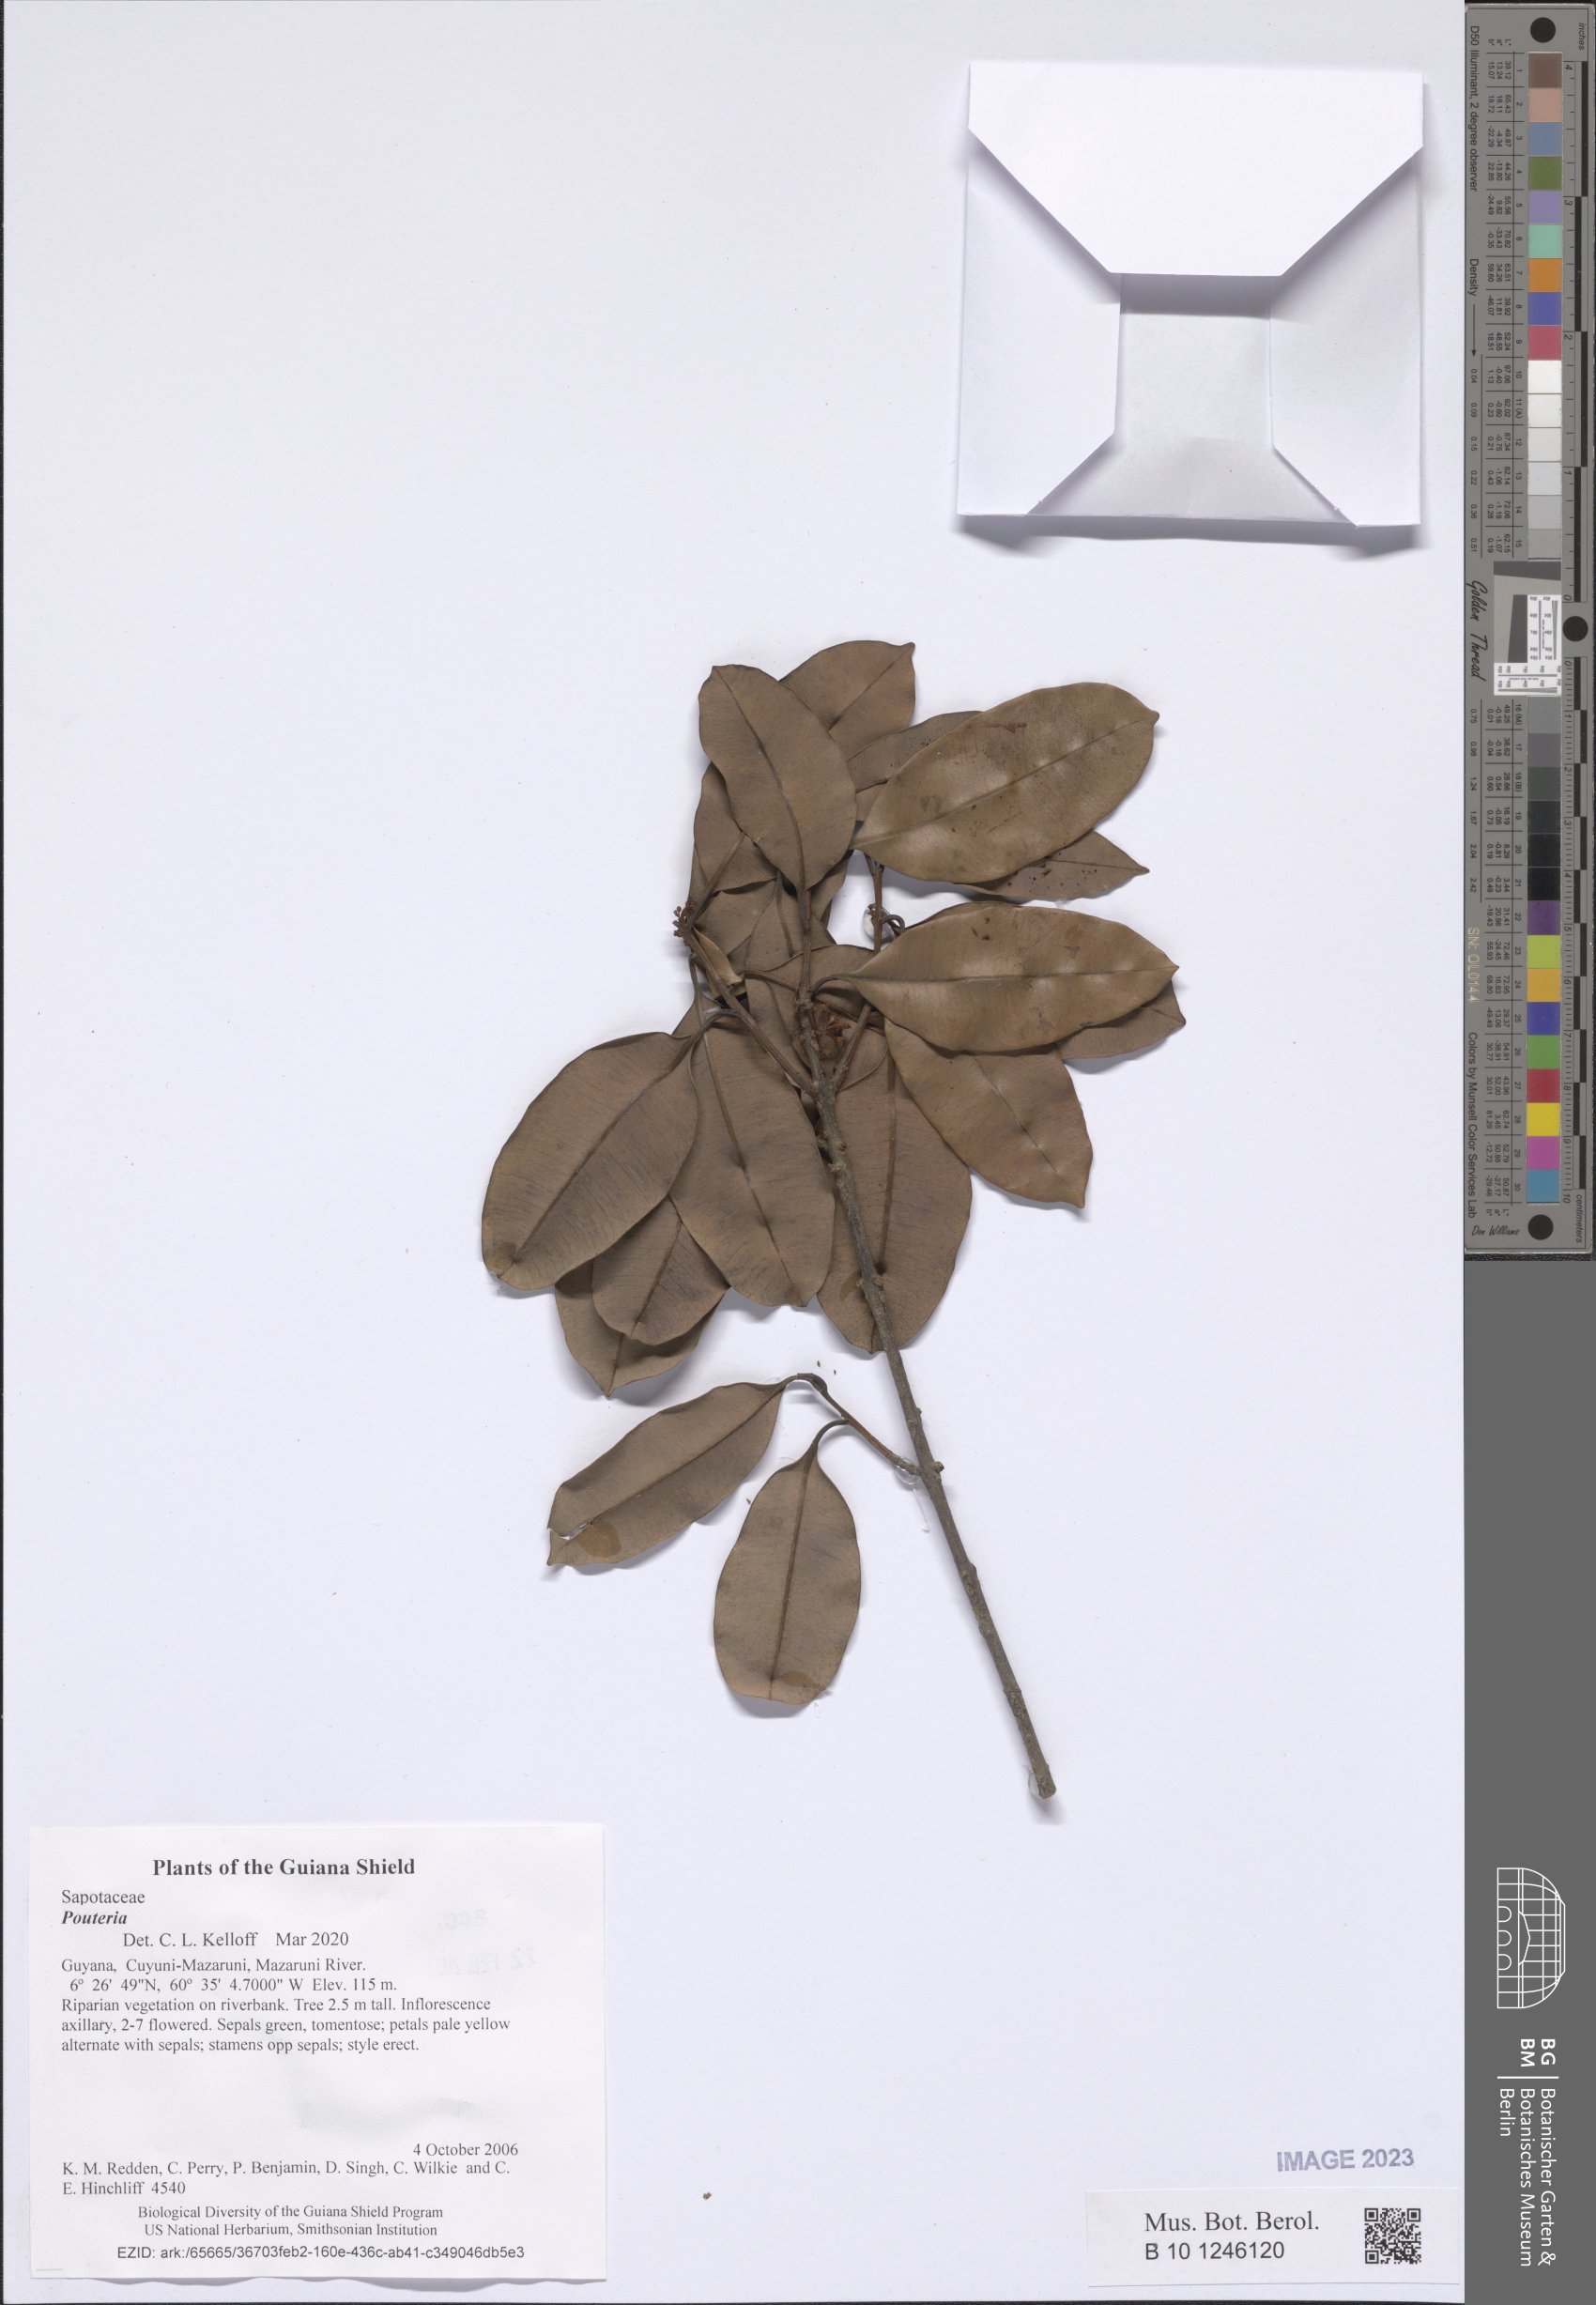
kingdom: Plantae
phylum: Tracheophyta
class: Magnoliopsida
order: Ericales
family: Sapotaceae
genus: Pouteria
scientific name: Pouteria
